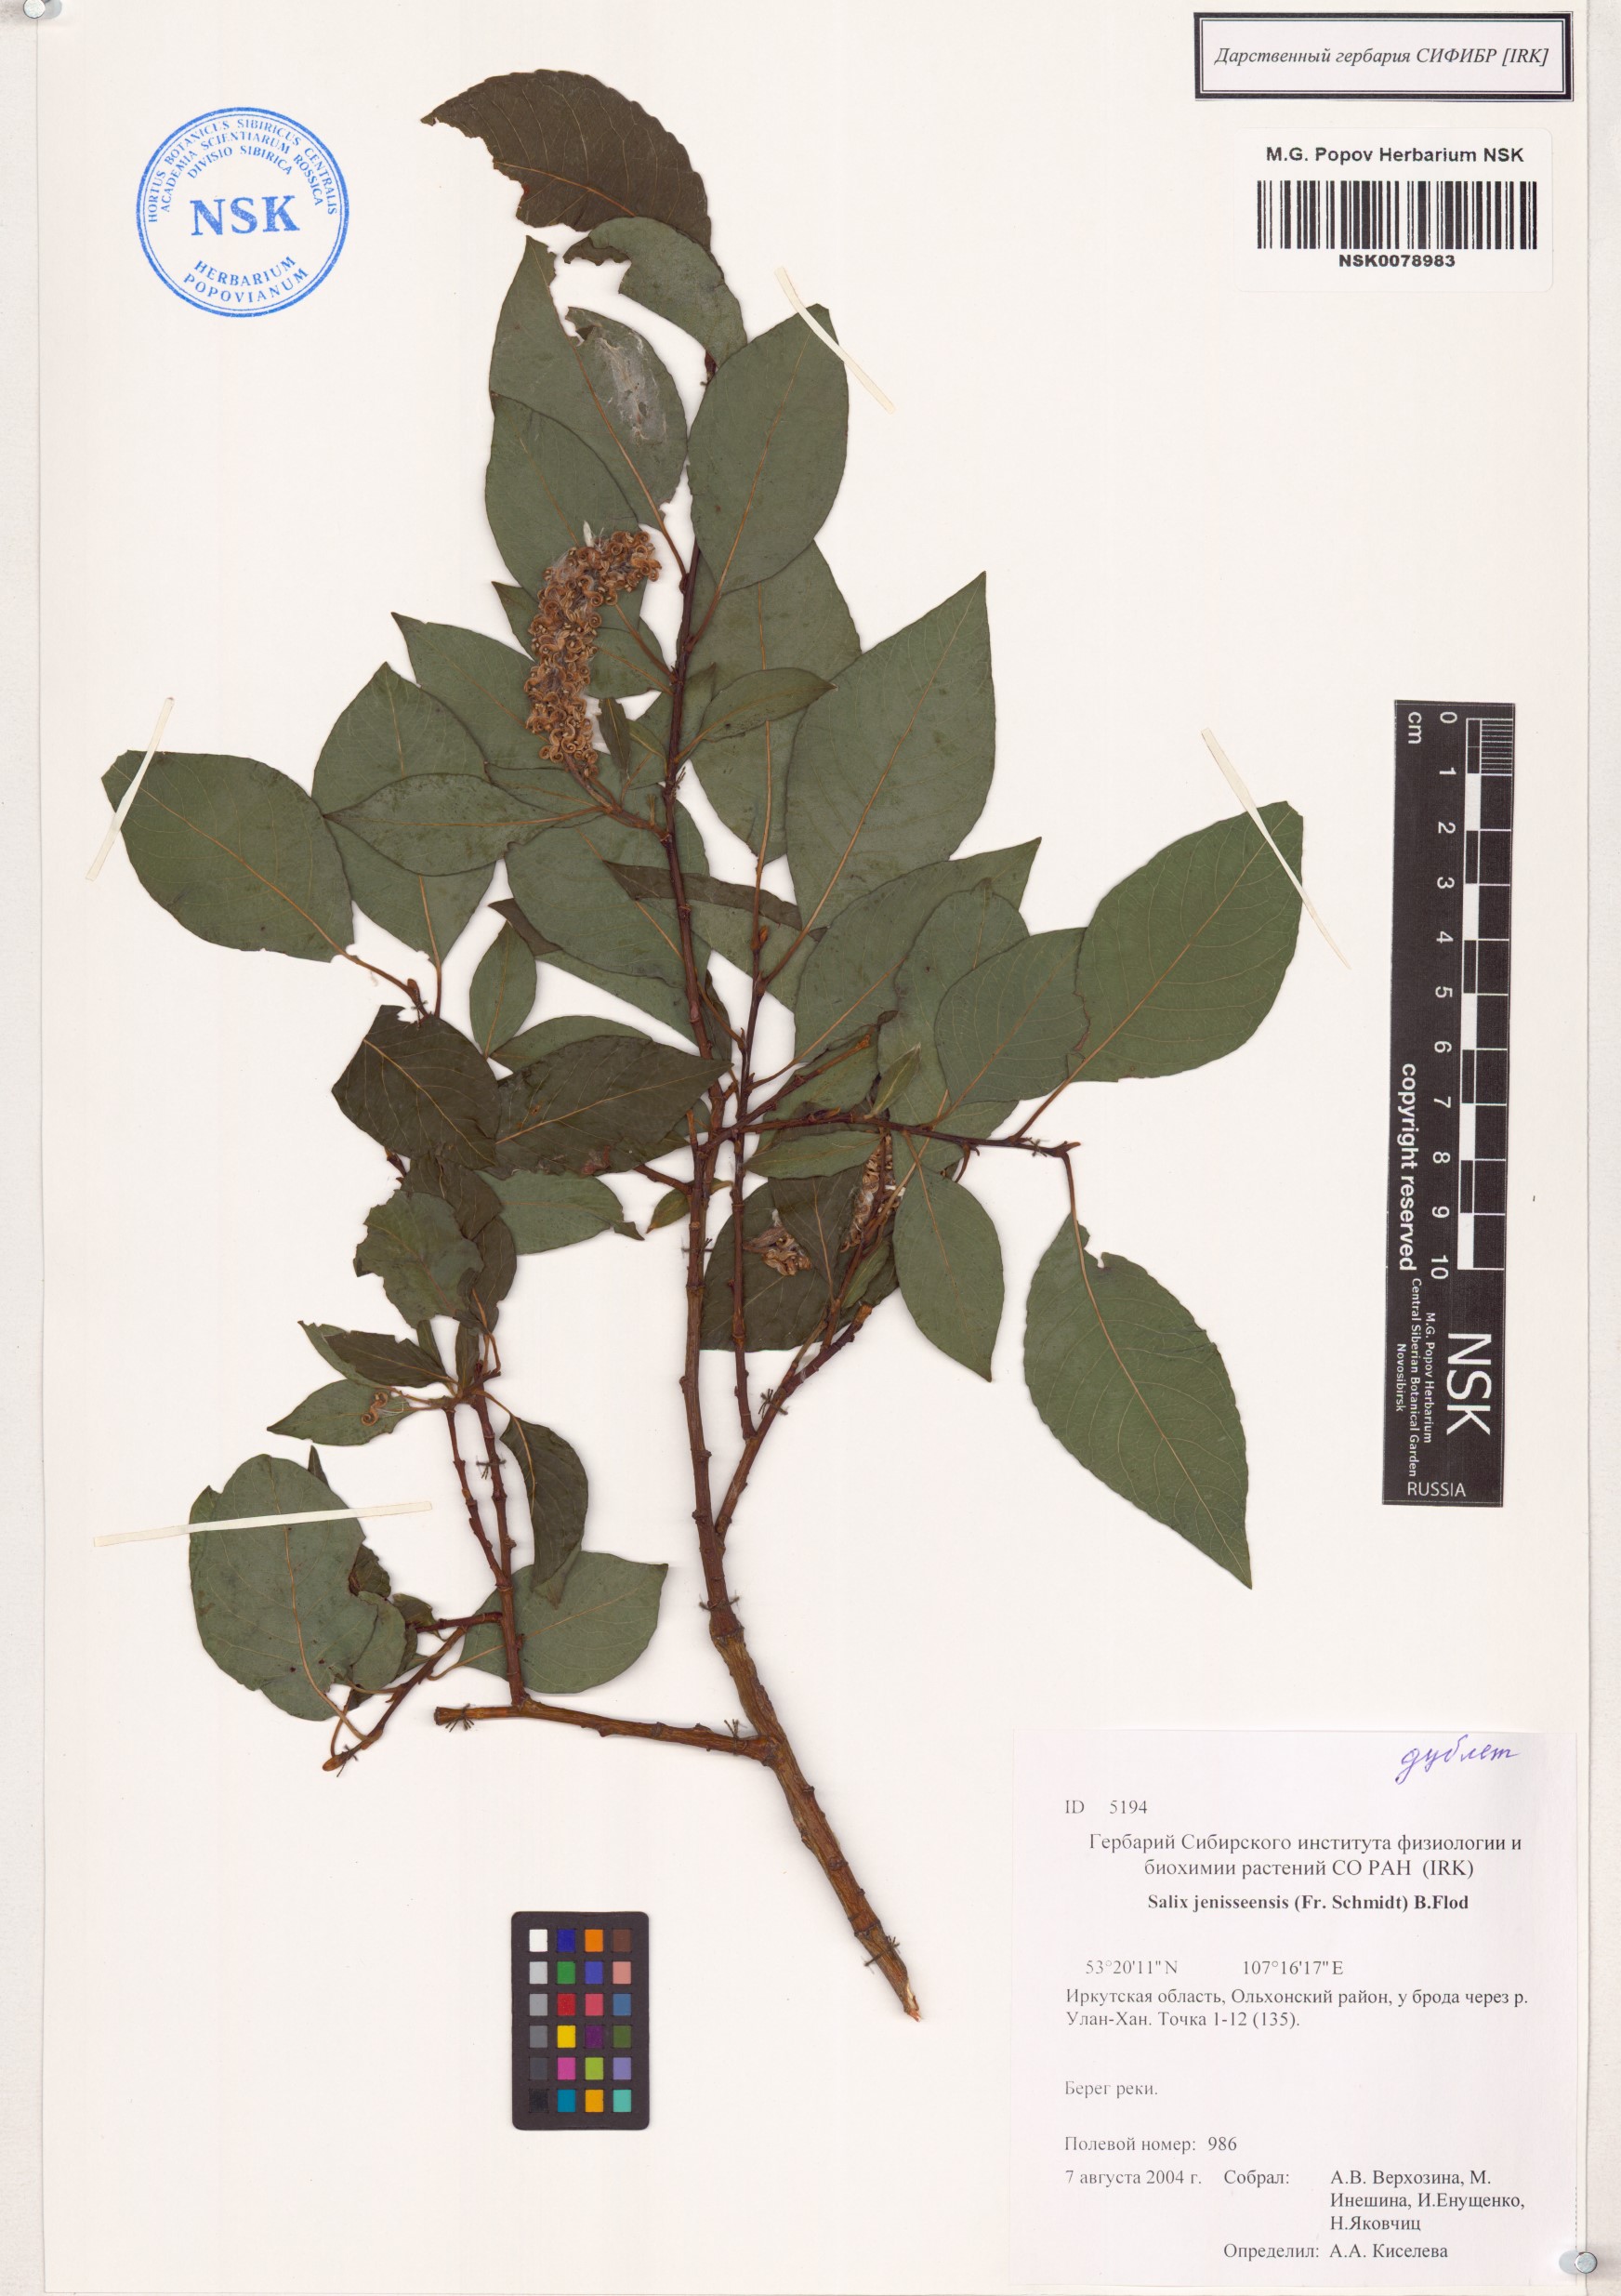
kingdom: Plantae
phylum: Tracheophyta
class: Magnoliopsida
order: Malpighiales
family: Salicaceae
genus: Salix
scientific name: Salix jenisseensis
